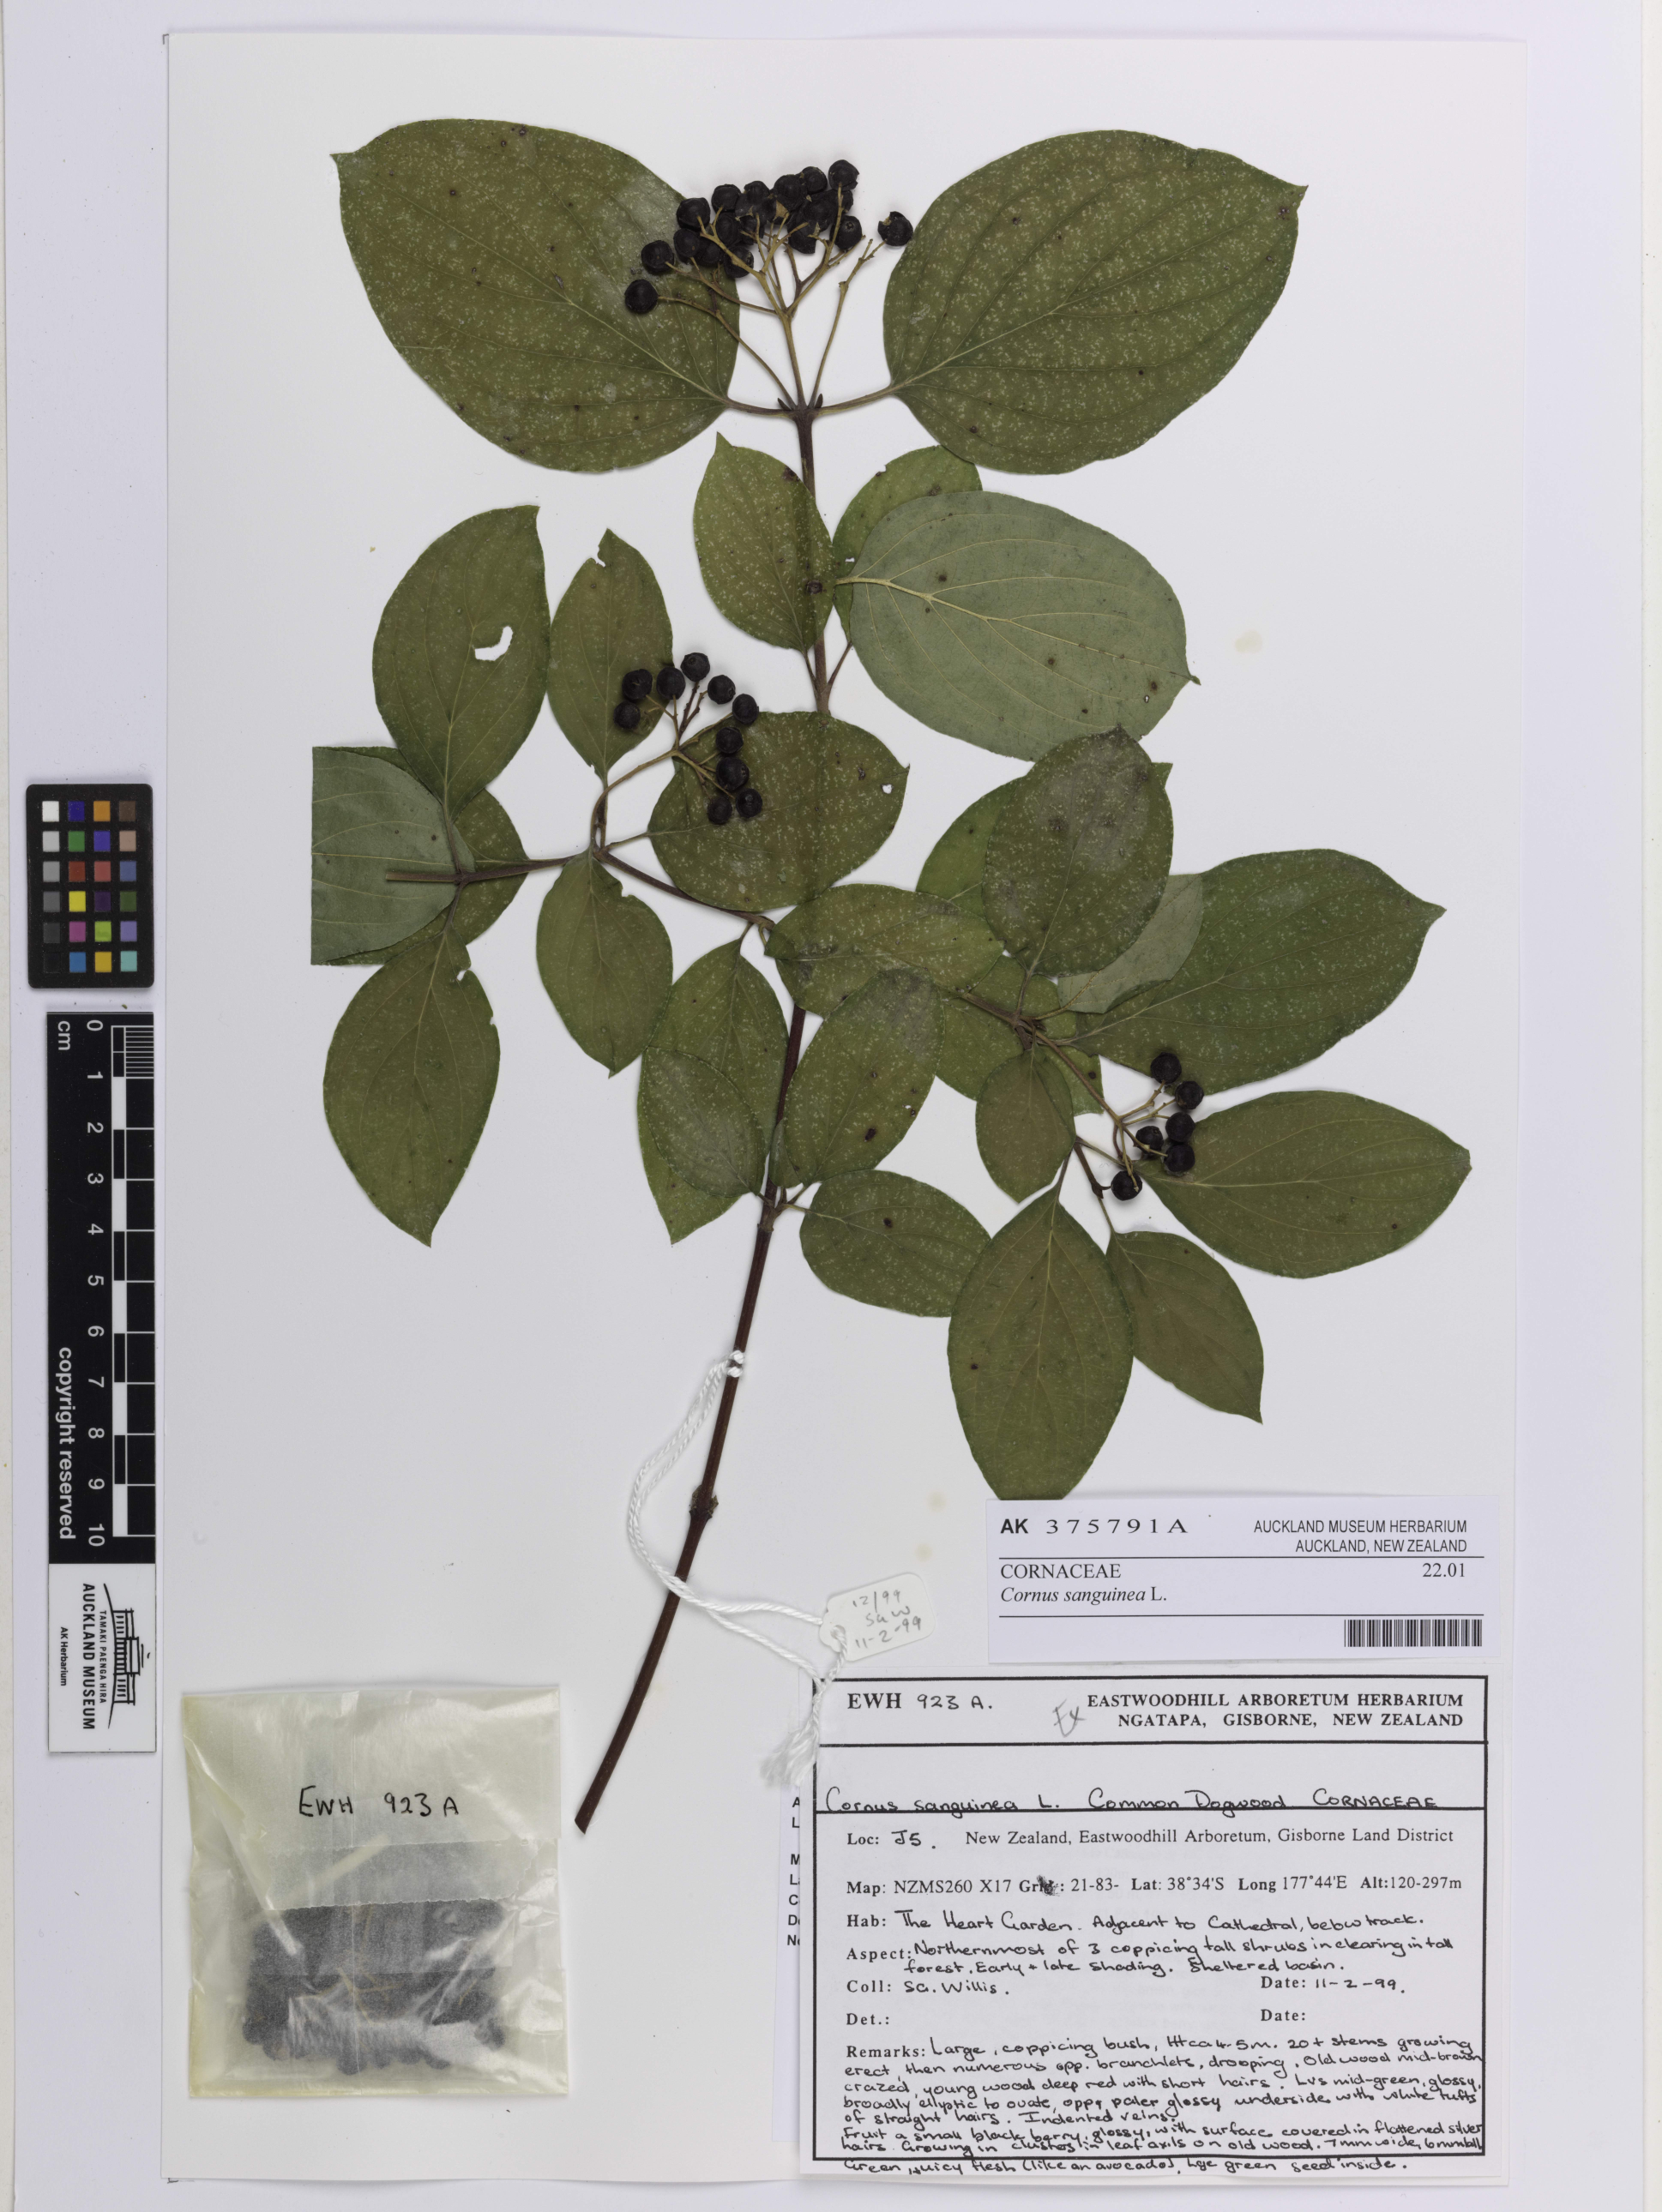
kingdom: Plantae
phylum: Tracheophyta
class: Magnoliopsida
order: Cornales
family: Cornaceae
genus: Cornus
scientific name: Cornus sanguinea
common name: Dogwood
